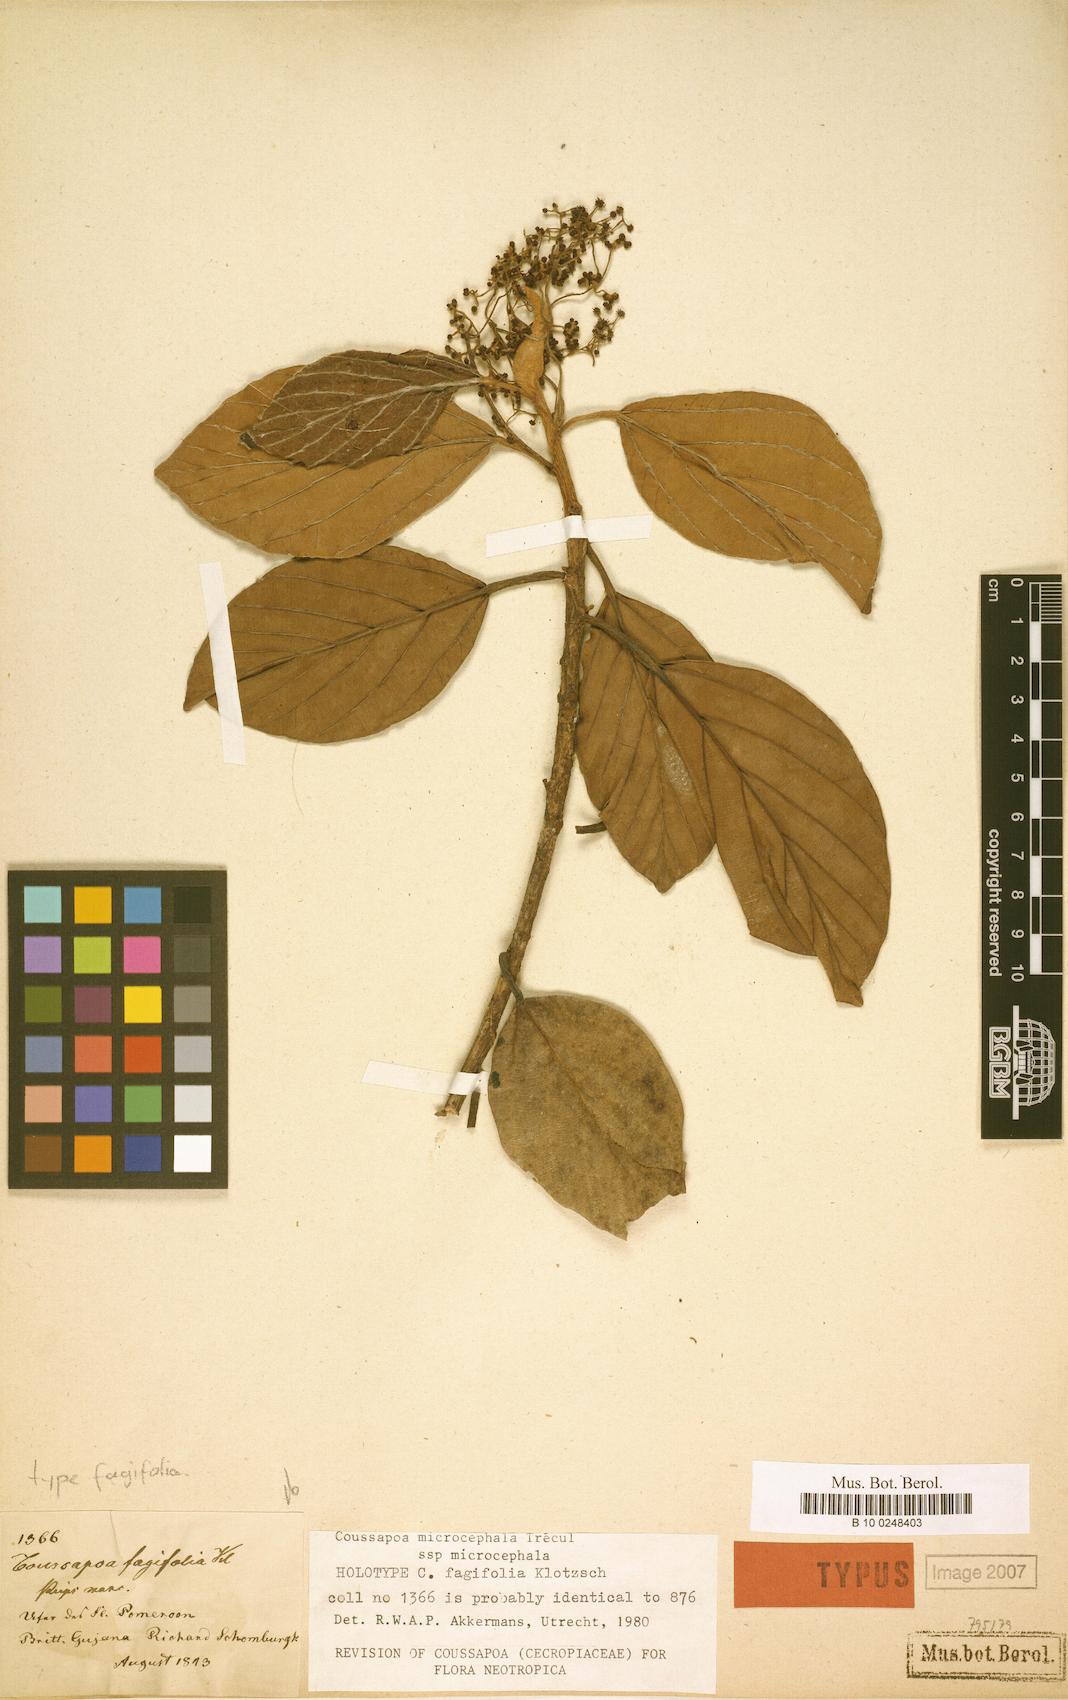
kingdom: Plantae
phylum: Tracheophyta
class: Magnoliopsida
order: Rosales
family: Urticaceae
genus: Coussapoa
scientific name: Coussapoa microcephala
